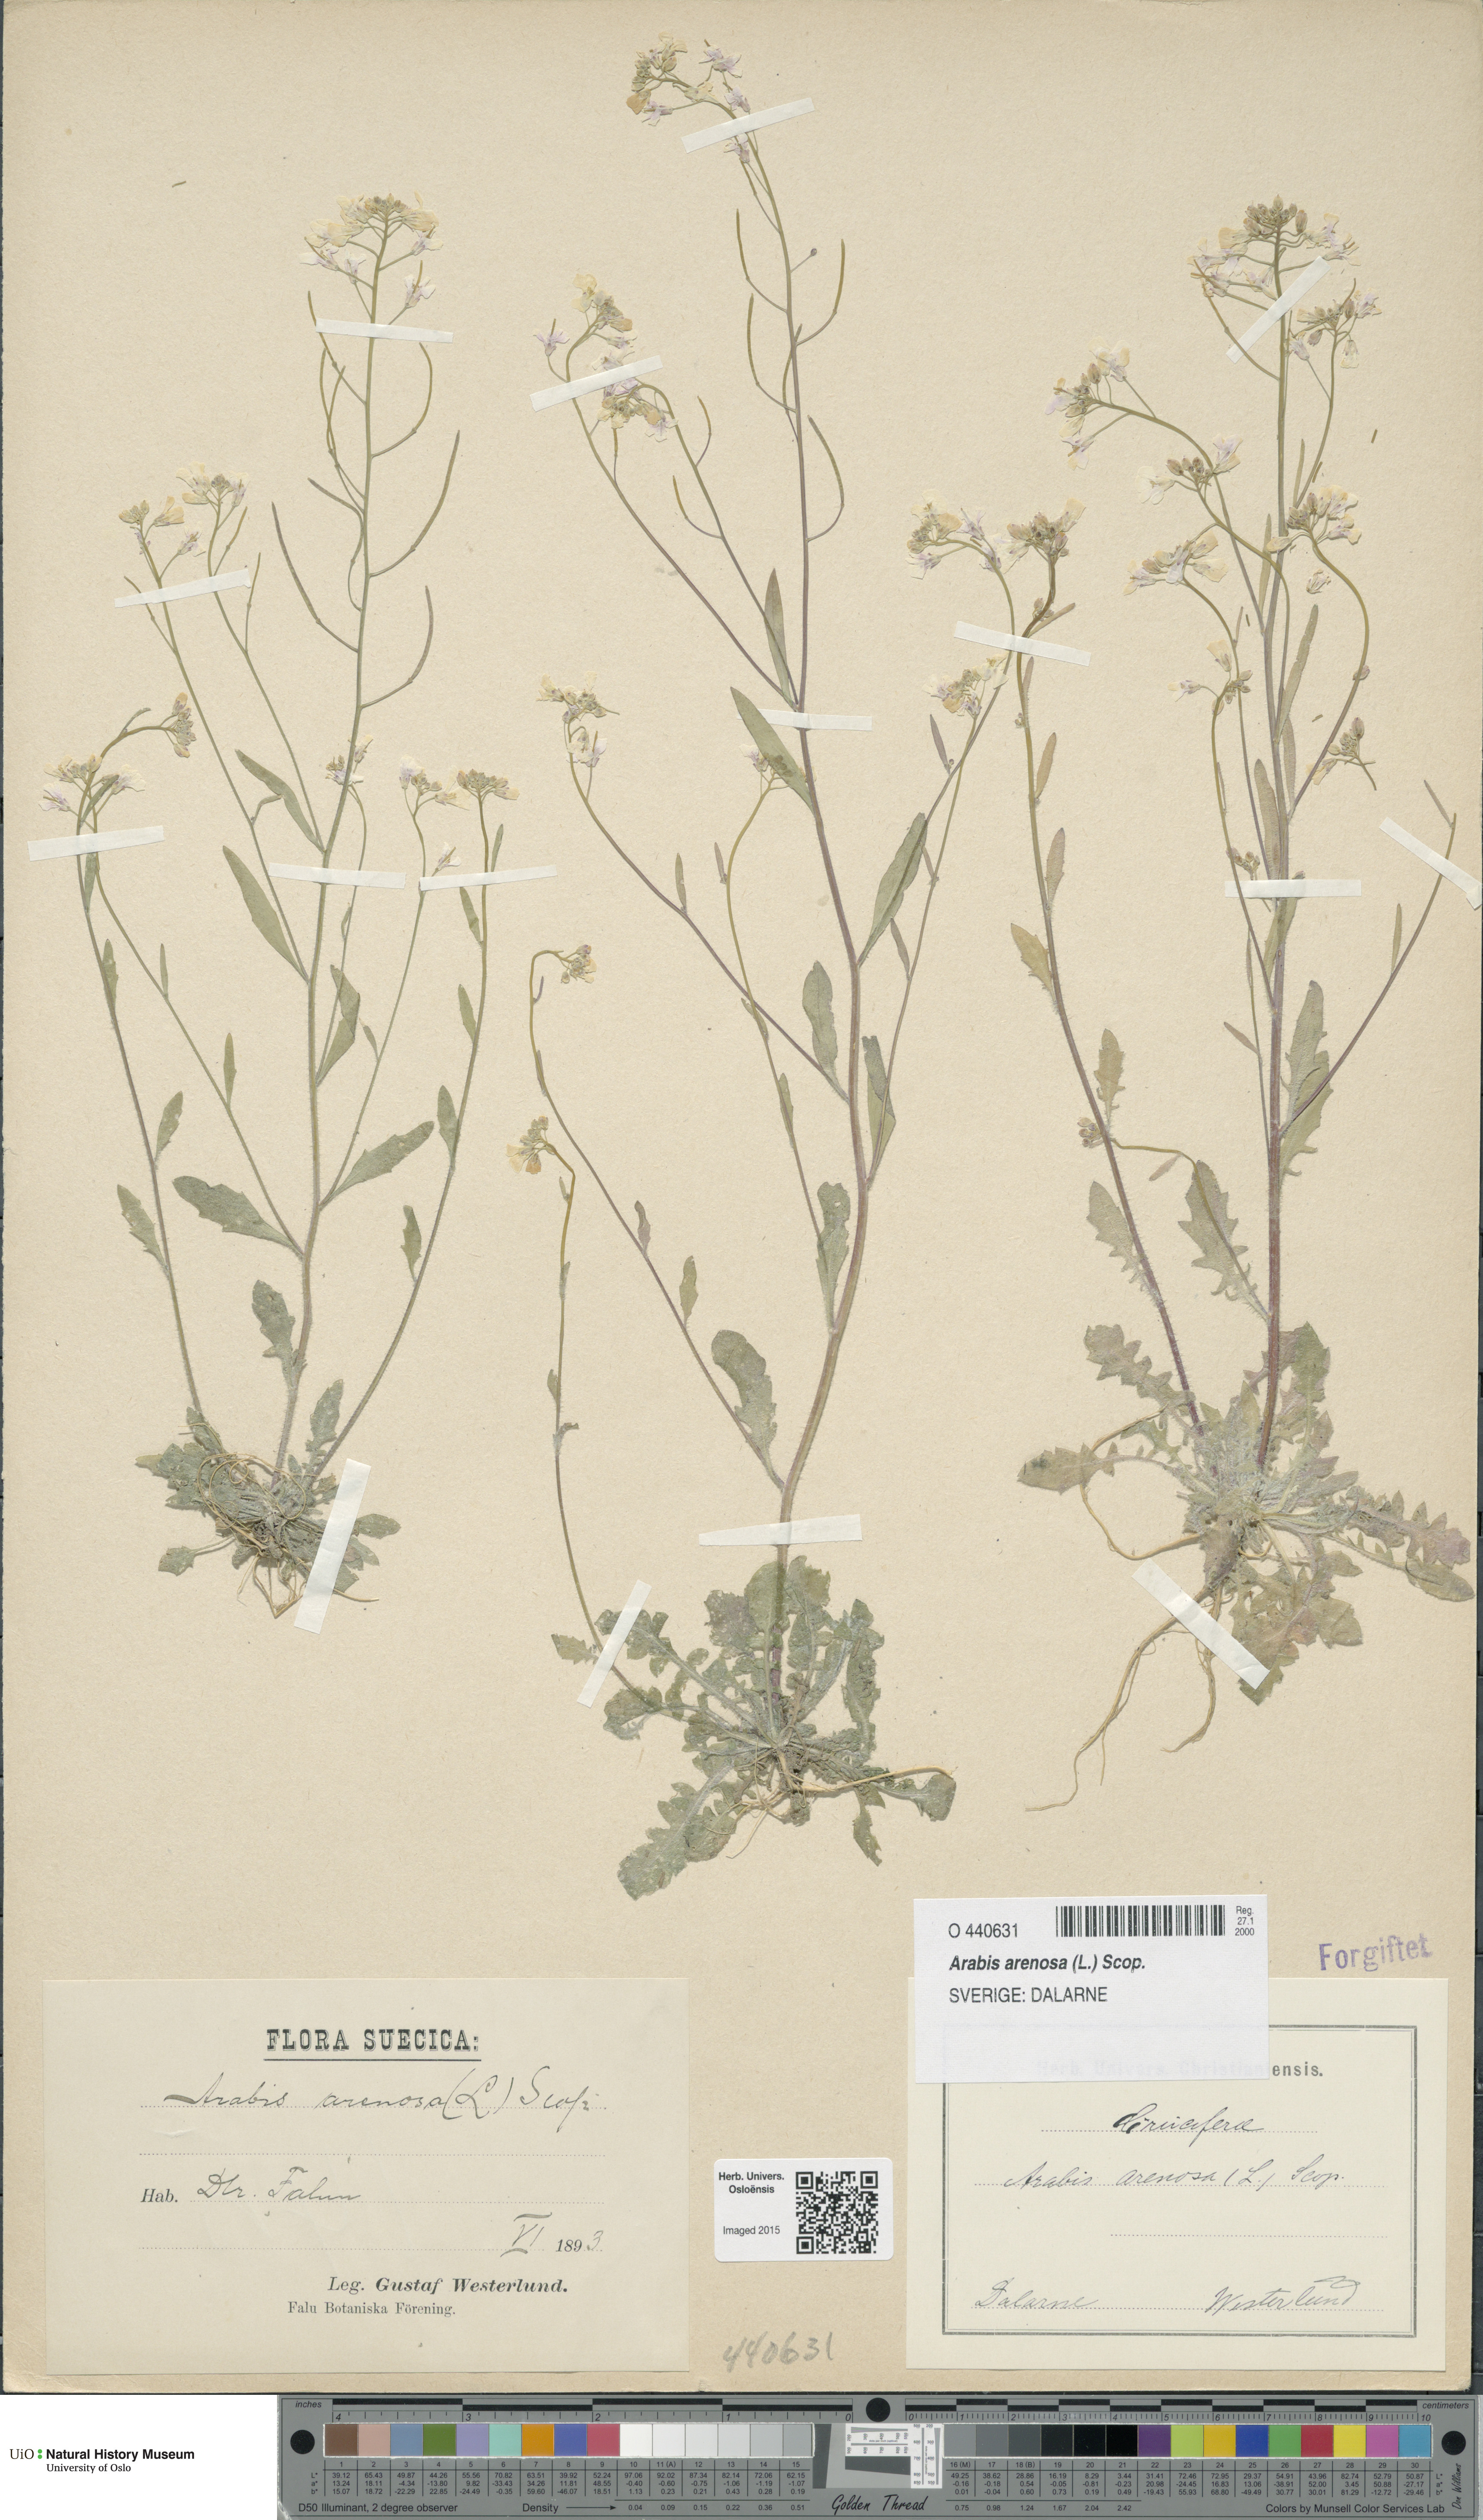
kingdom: Plantae
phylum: Tracheophyta
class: Magnoliopsida
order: Brassicales
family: Brassicaceae
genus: Arabidopsis
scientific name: Arabidopsis arenosa
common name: Sand rock-cress
